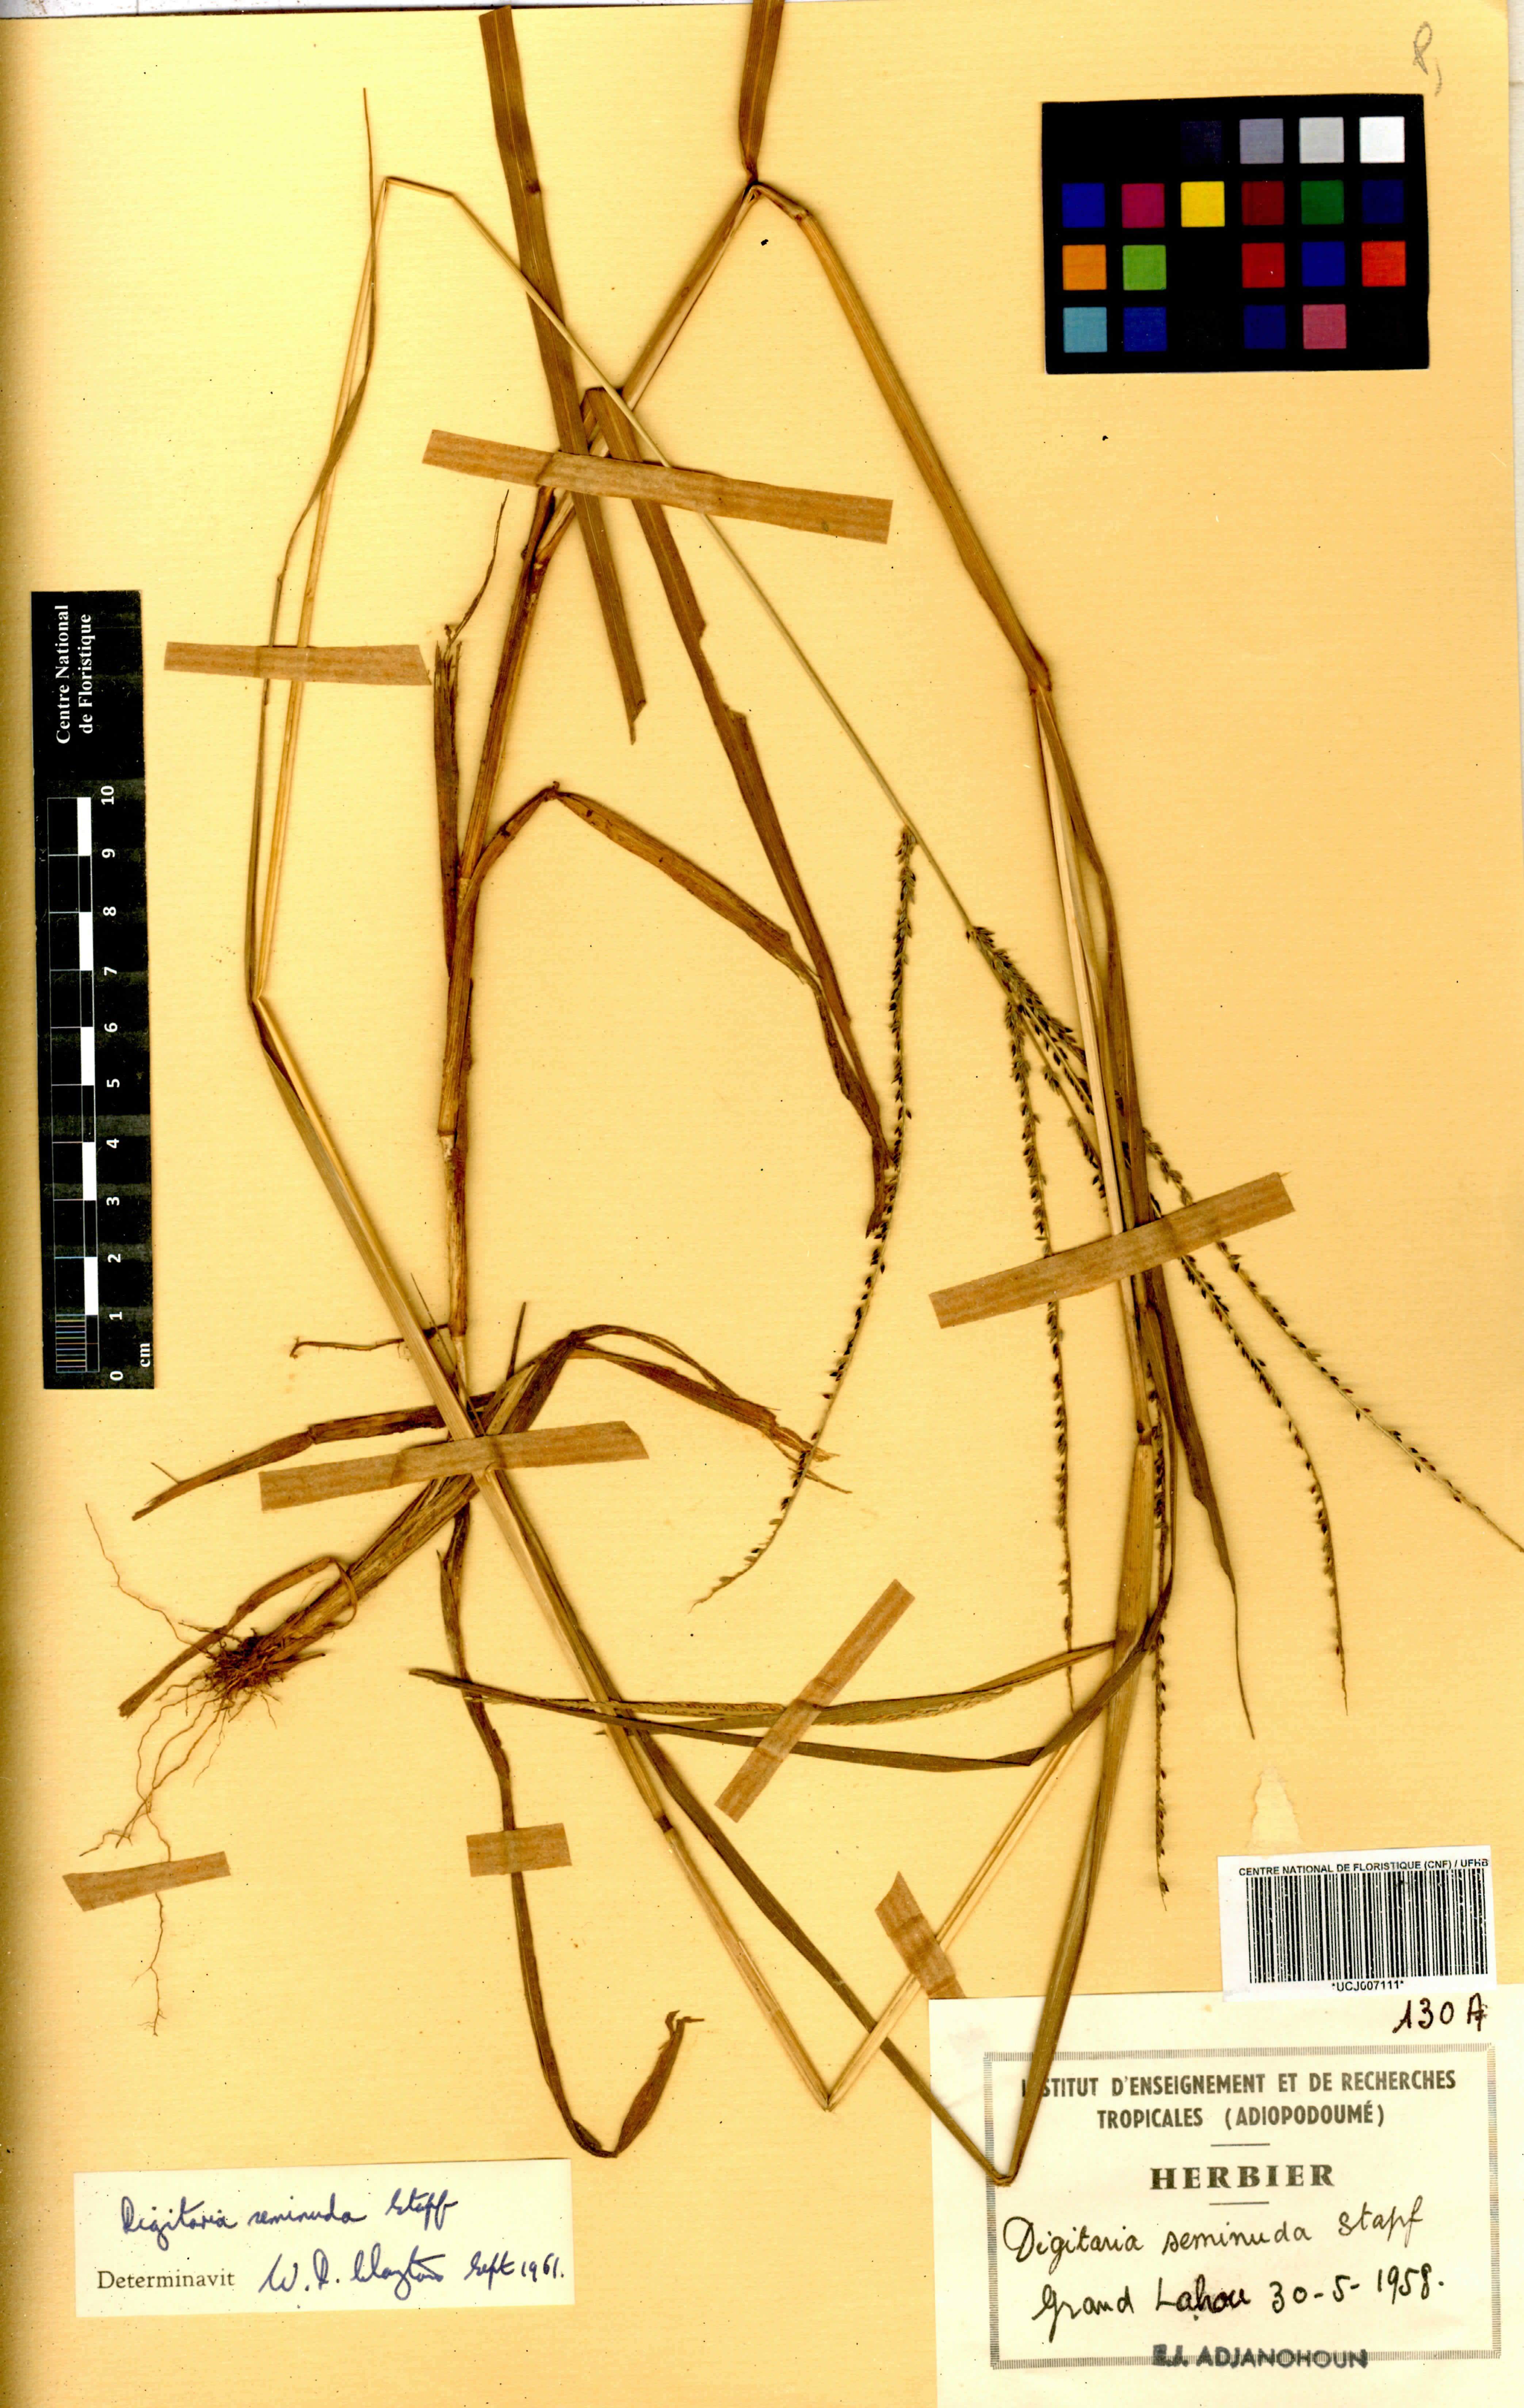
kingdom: Plantae
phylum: Tracheophyta
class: Liliopsida
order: Poales
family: Poaceae
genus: Digitaria
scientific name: Digitaria atrofusca
